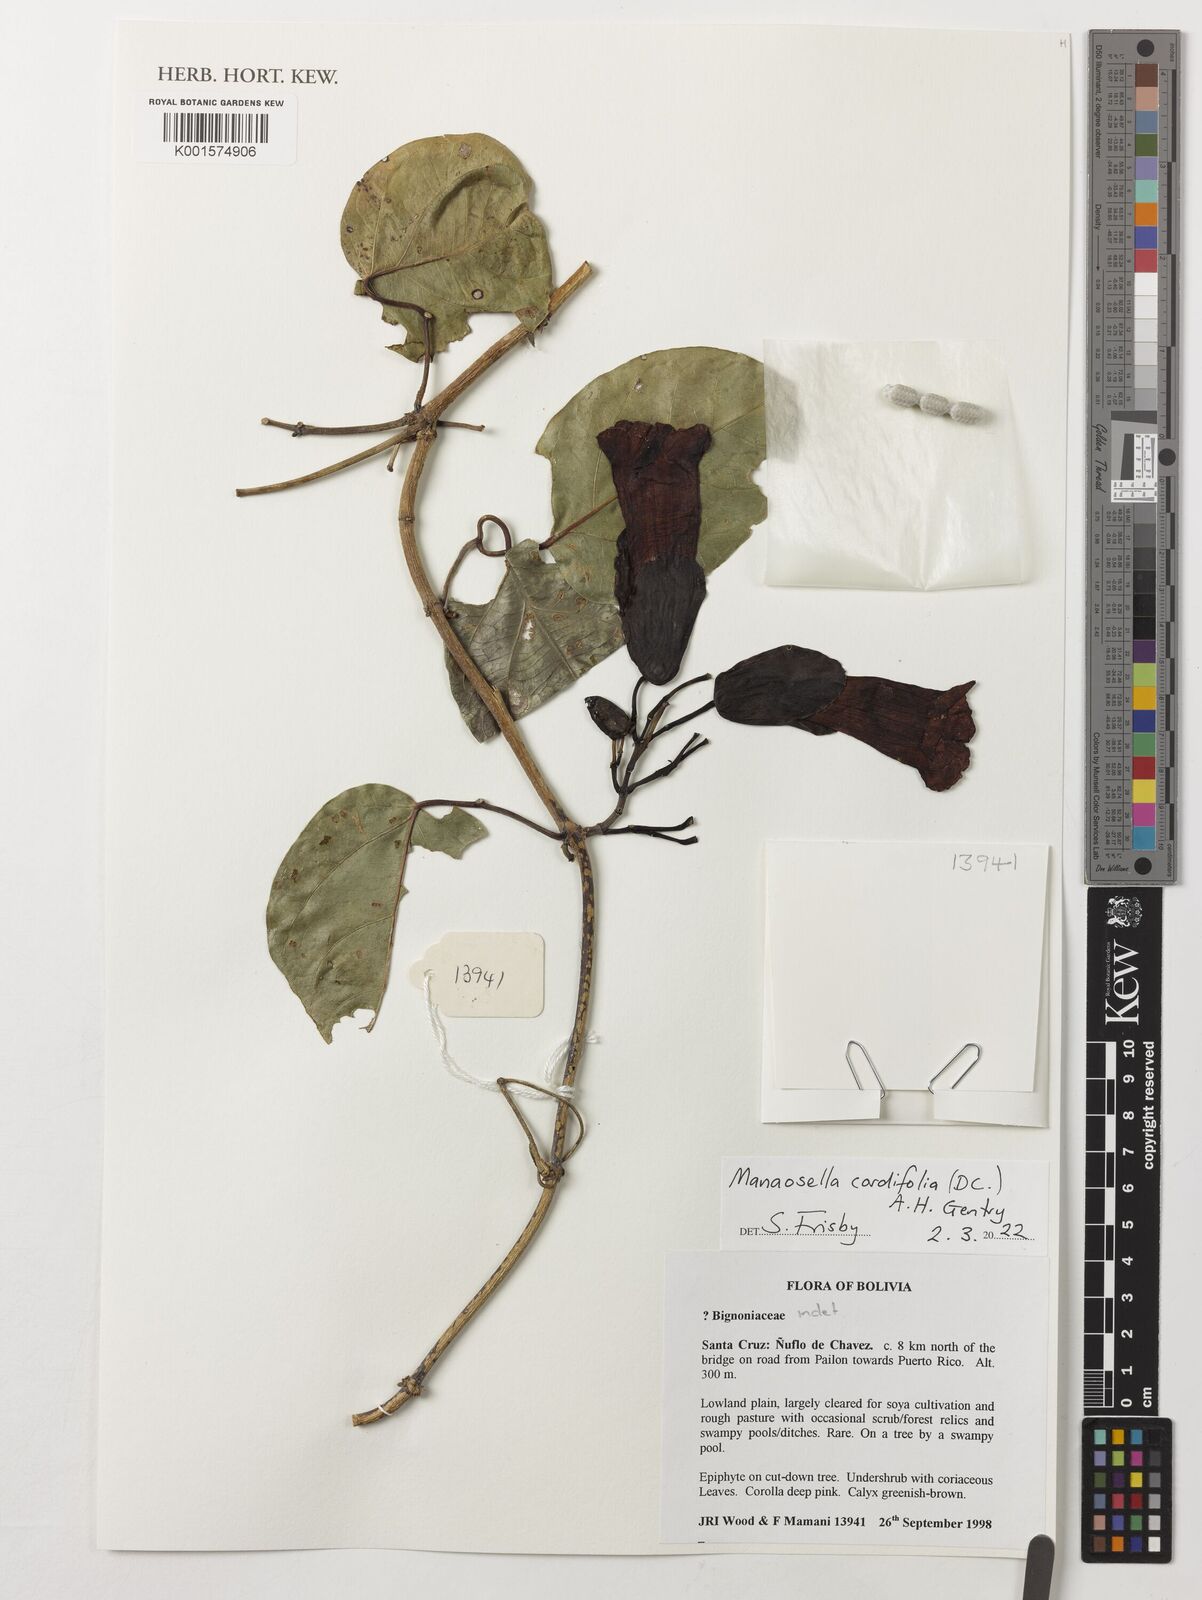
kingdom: Plantae
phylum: Tracheophyta
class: Magnoliopsida
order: Lamiales
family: Bignoniaceae
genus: Manaosella
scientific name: Manaosella cordifolia
